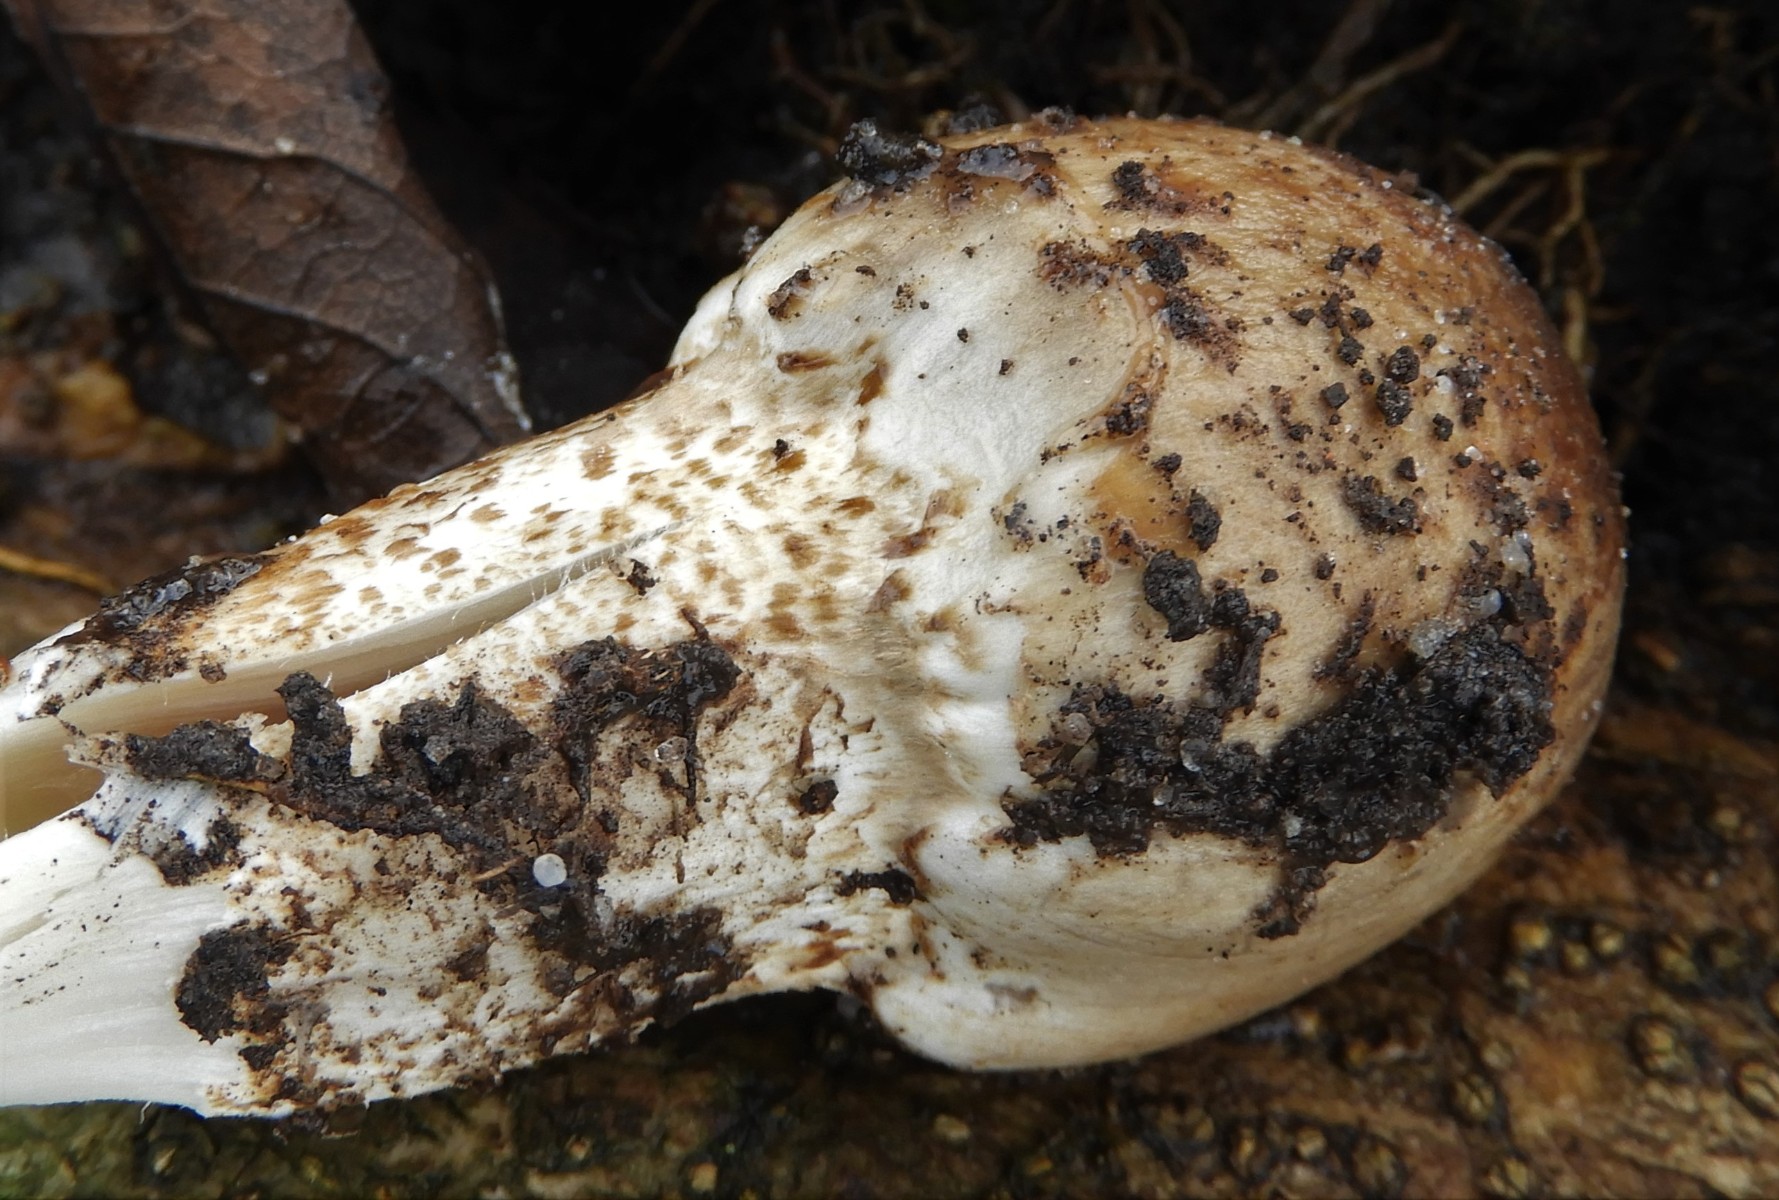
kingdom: Fungi
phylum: Basidiomycota
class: Agaricomycetes
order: Agaricales
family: Psathyrellaceae
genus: Coprinopsis
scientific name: Coprinopsis romagnesiana
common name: brunskællet blækhat
